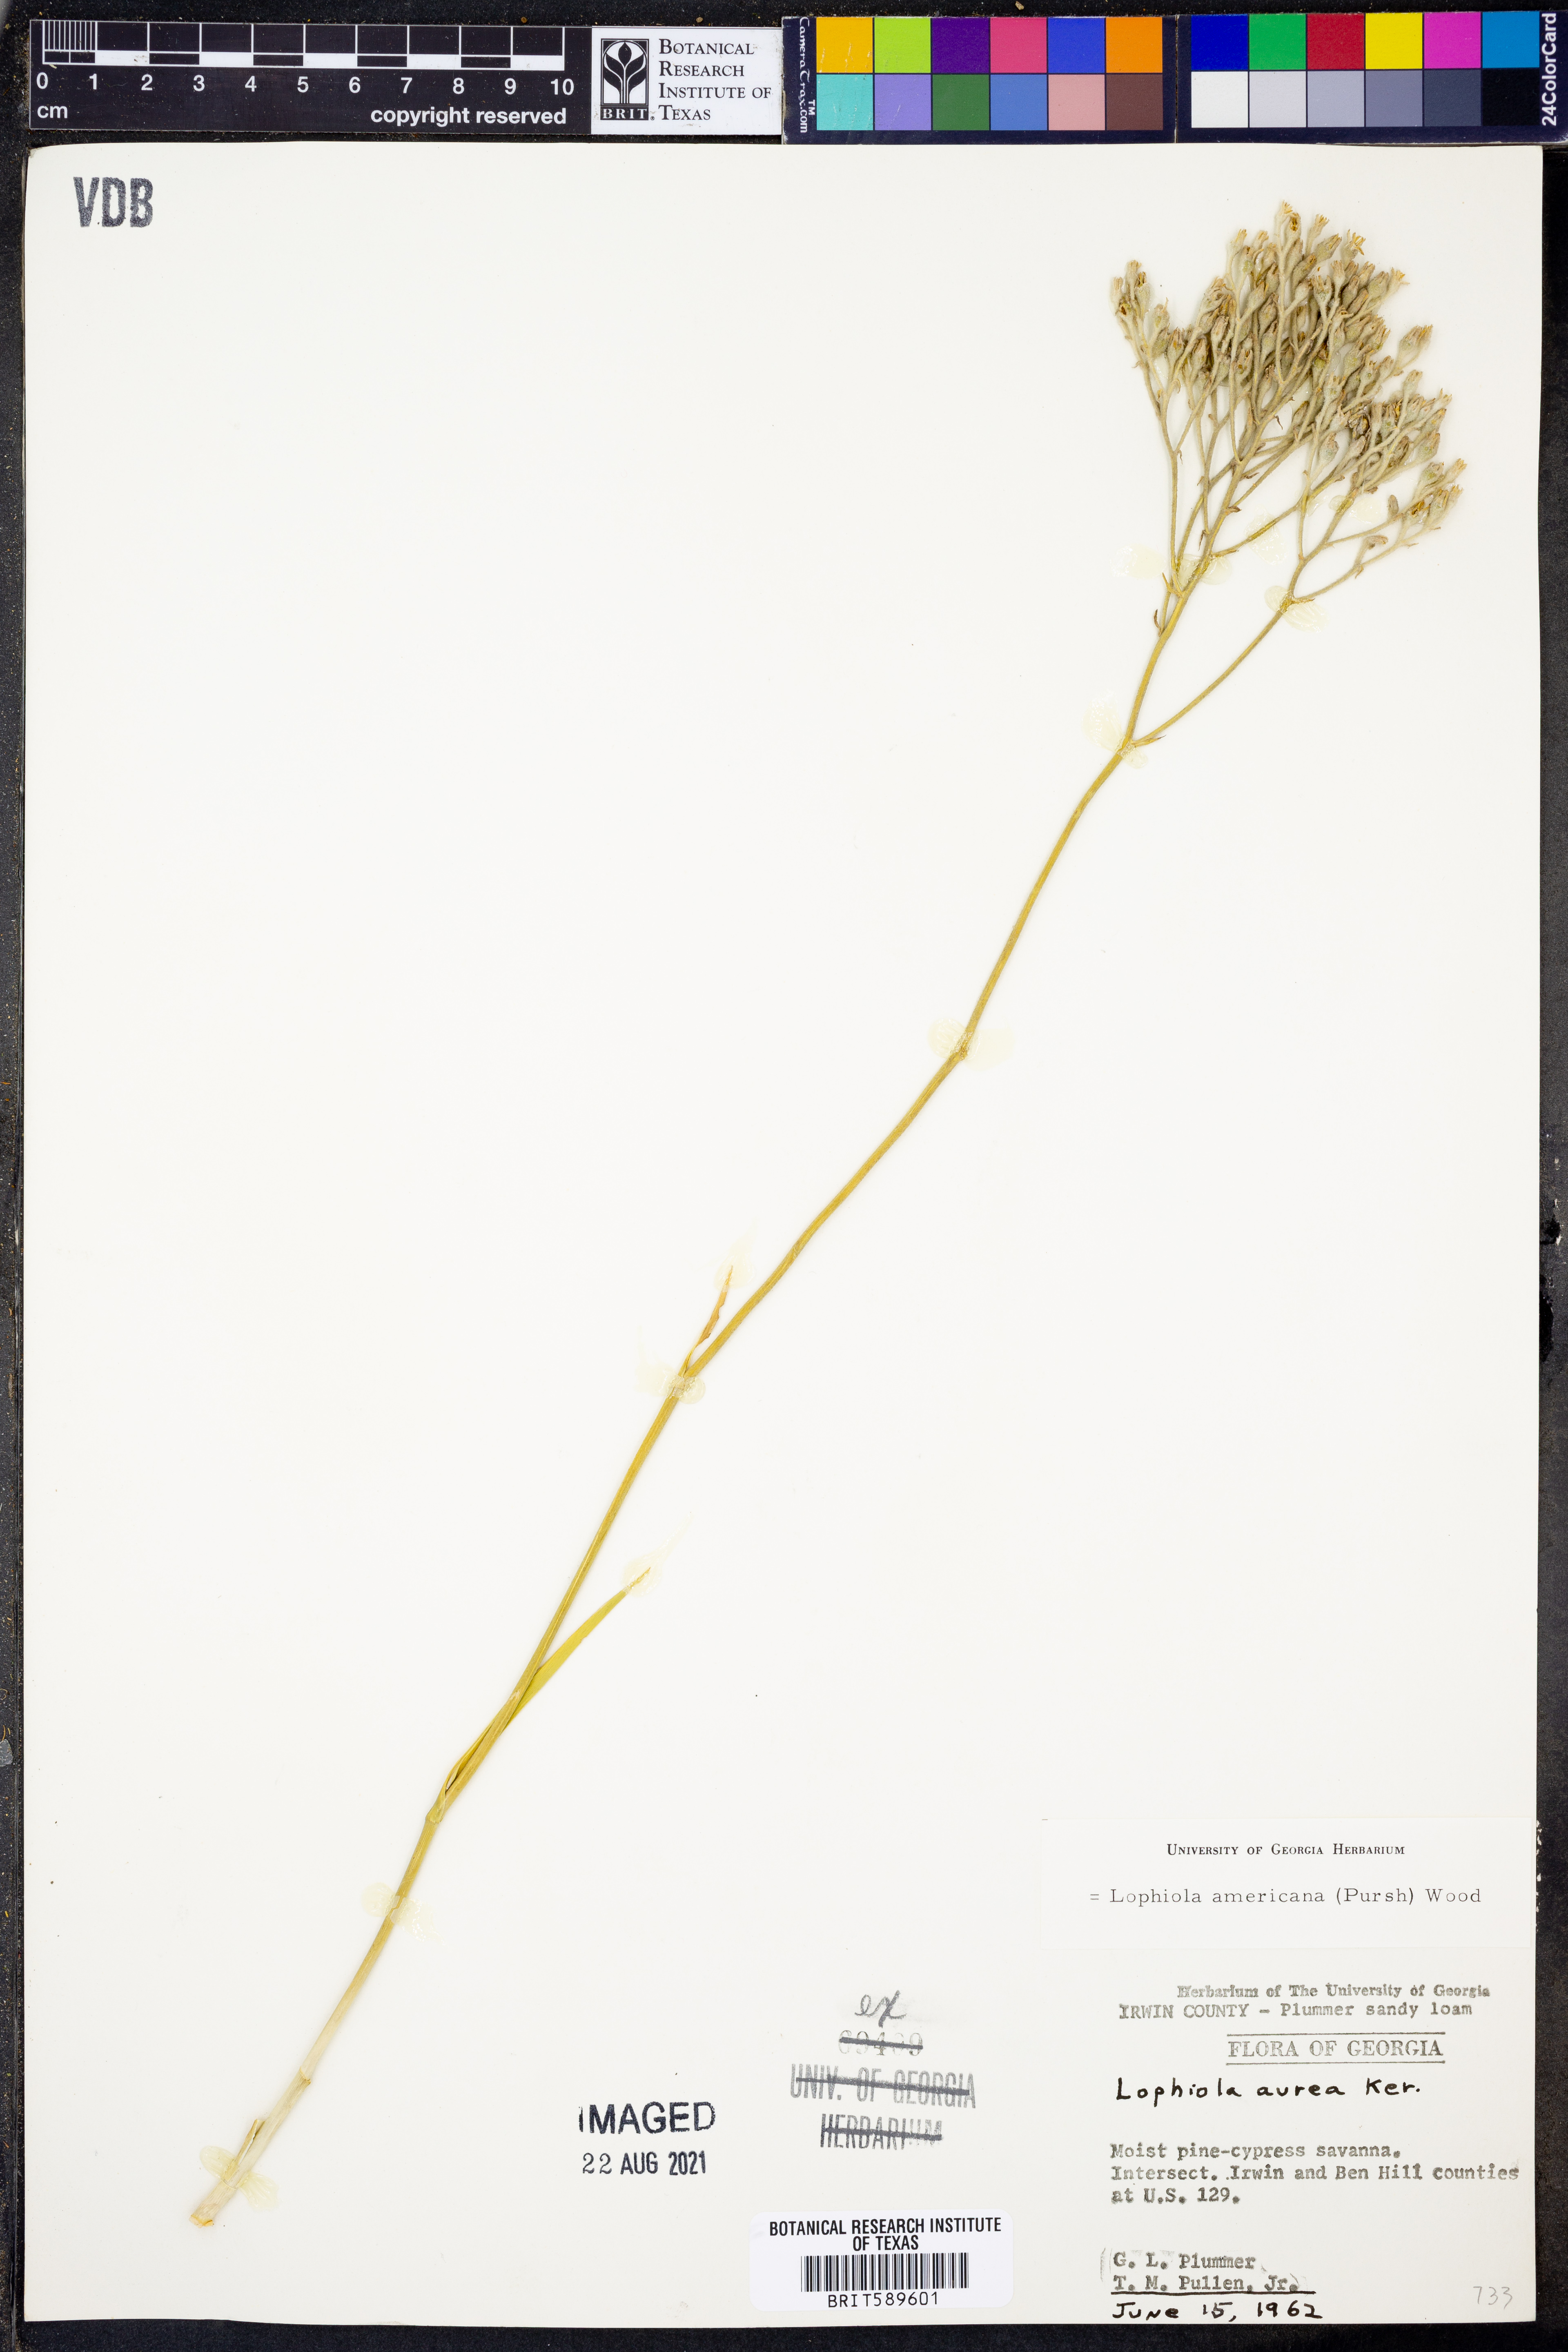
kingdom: Plantae
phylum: Tracheophyta
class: Liliopsida
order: Dioscoreales
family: Nartheciaceae
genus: Lophiola
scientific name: Lophiola aurea
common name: Golden-crest
